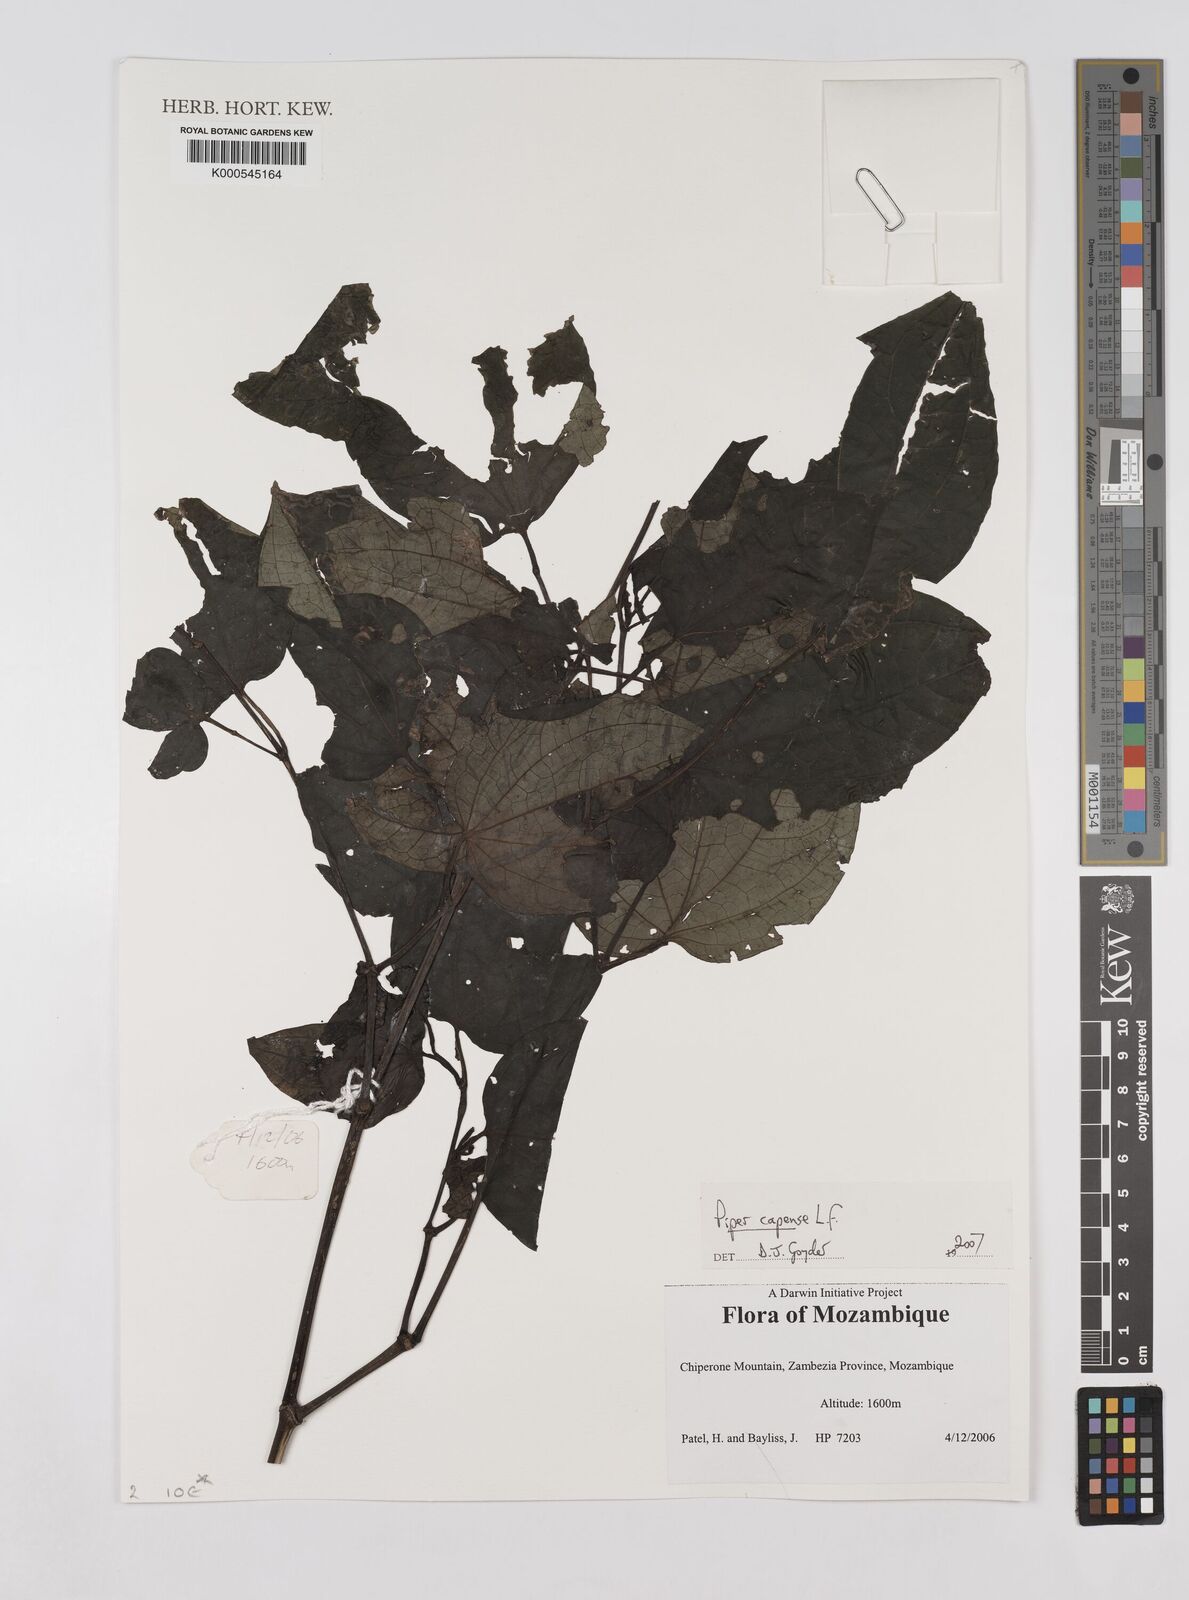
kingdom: Plantae
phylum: Tracheophyta
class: Magnoliopsida
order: Piperales
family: Piperaceae
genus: Piper
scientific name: Piper capense
